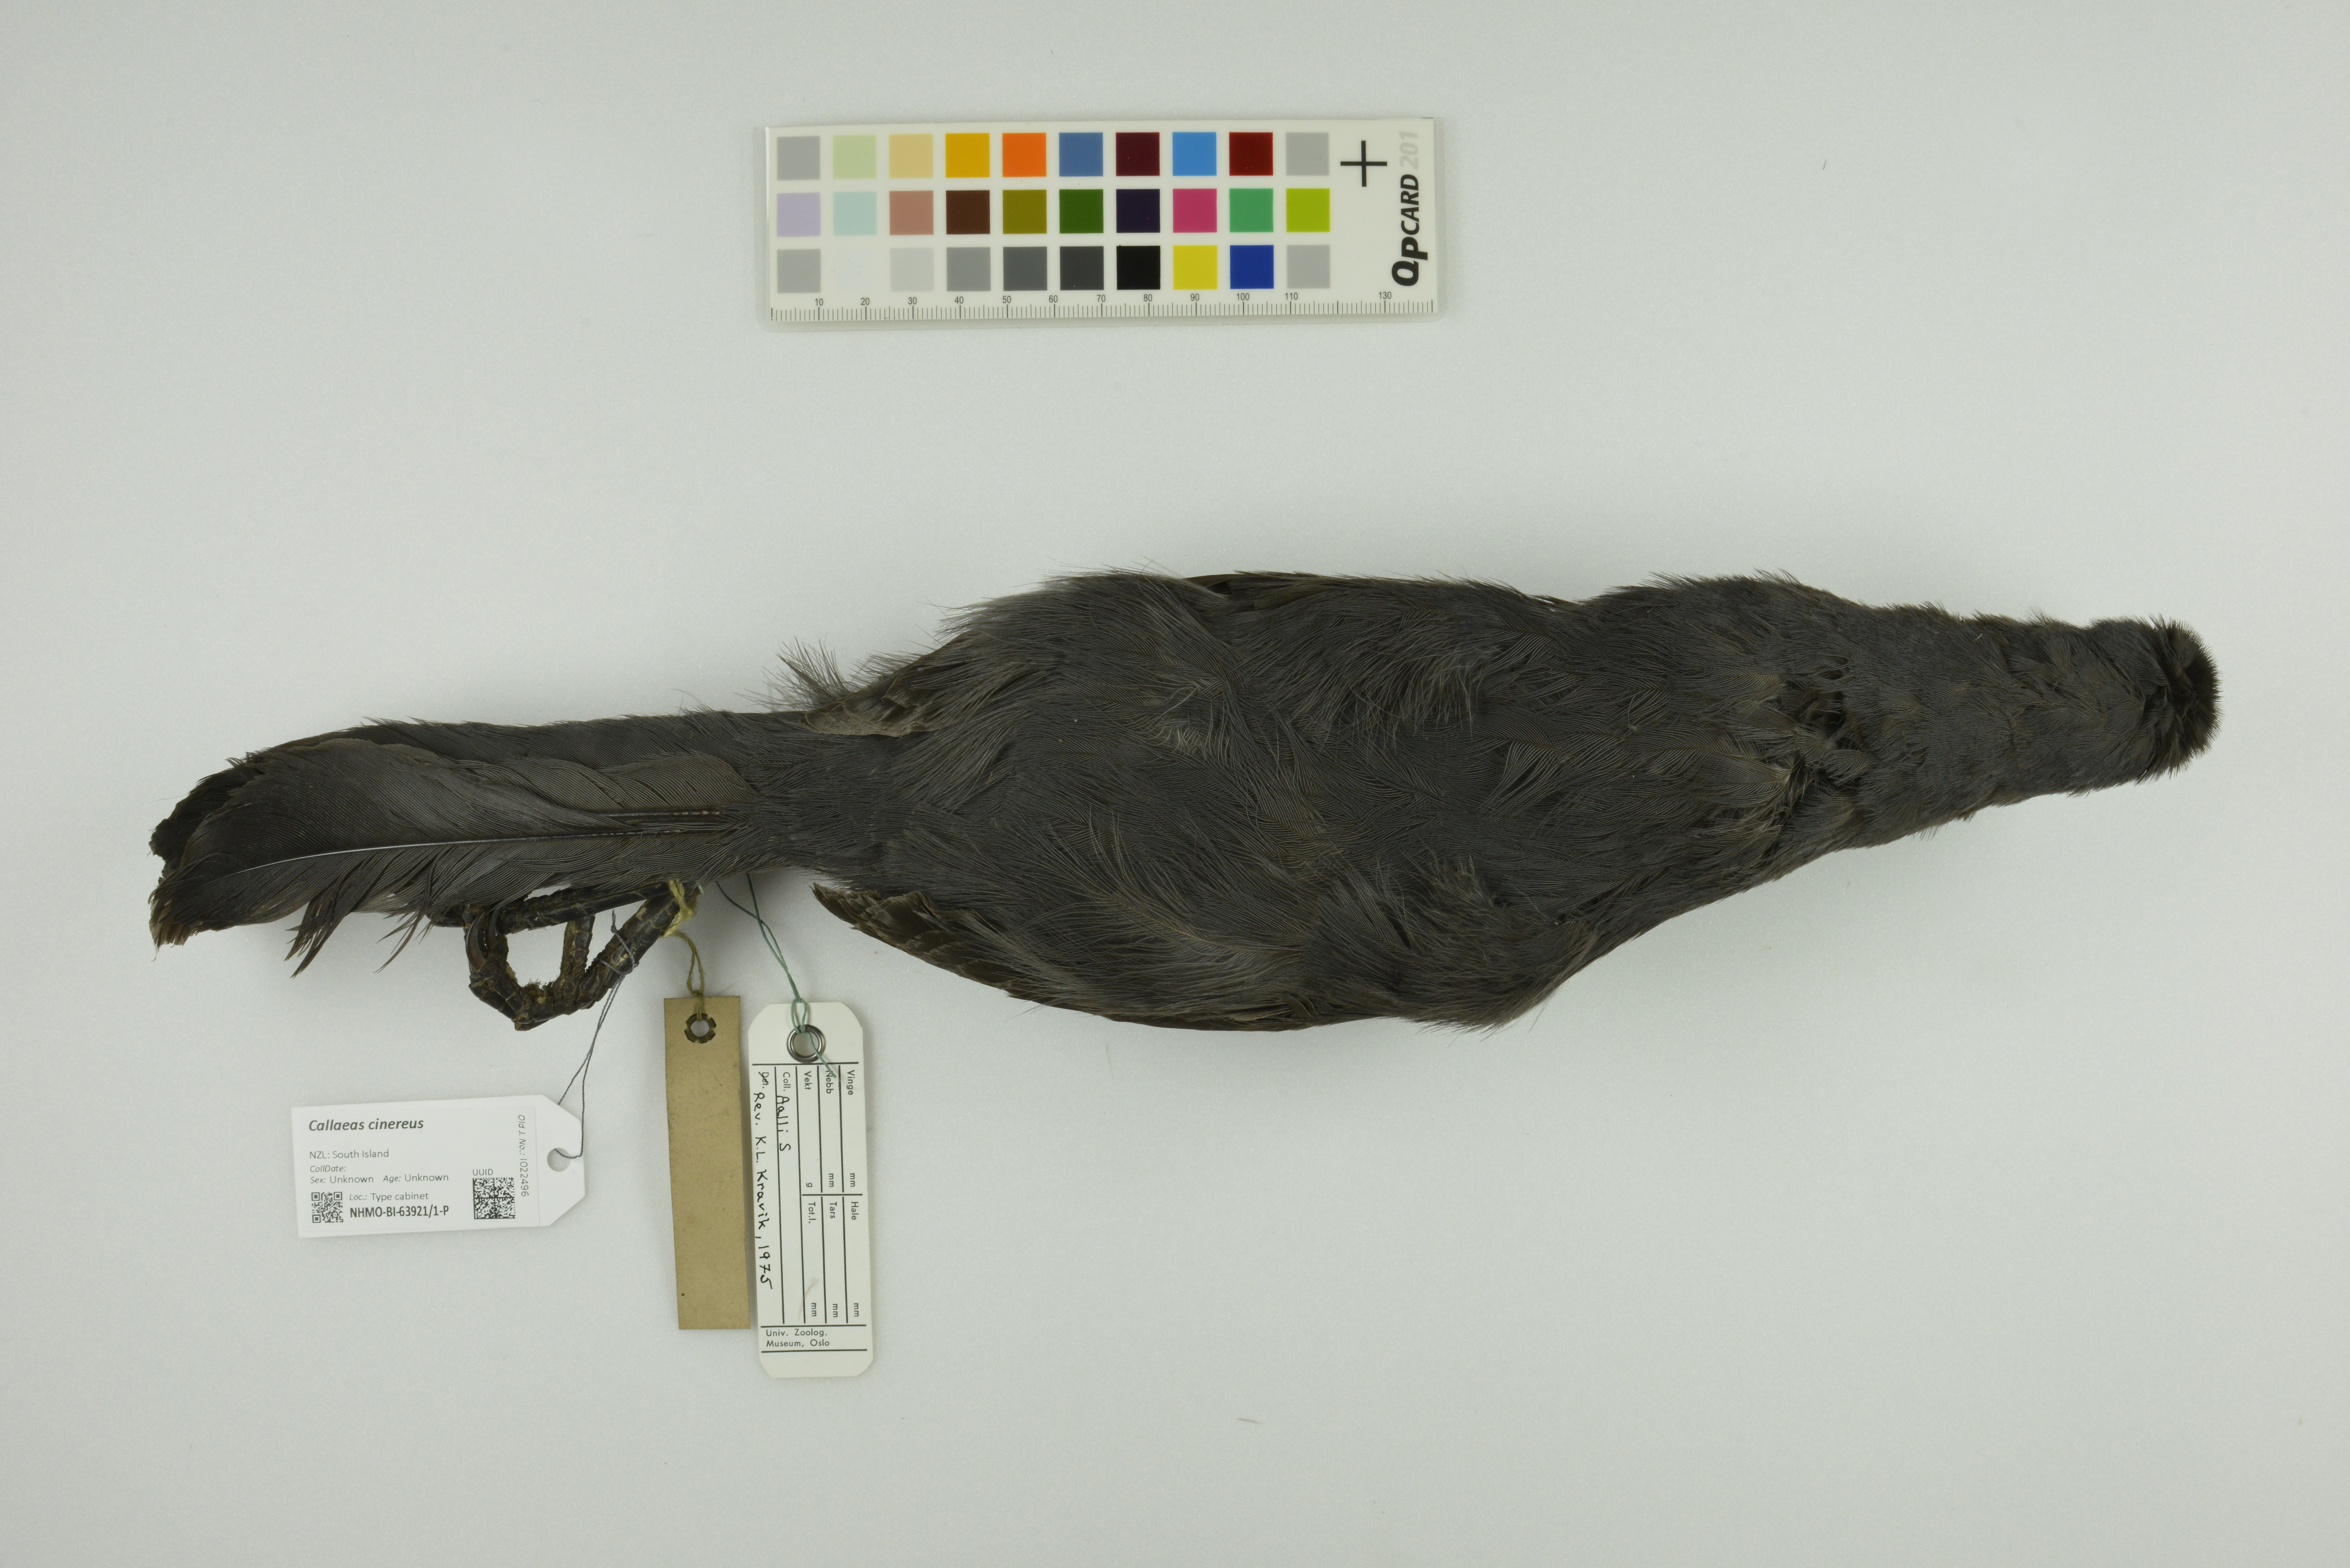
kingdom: Animalia
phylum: Chordata
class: Aves
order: Passeriformes
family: Callaeatidae
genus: Callaeas
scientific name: Callaeas cinereus
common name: South island kokako
